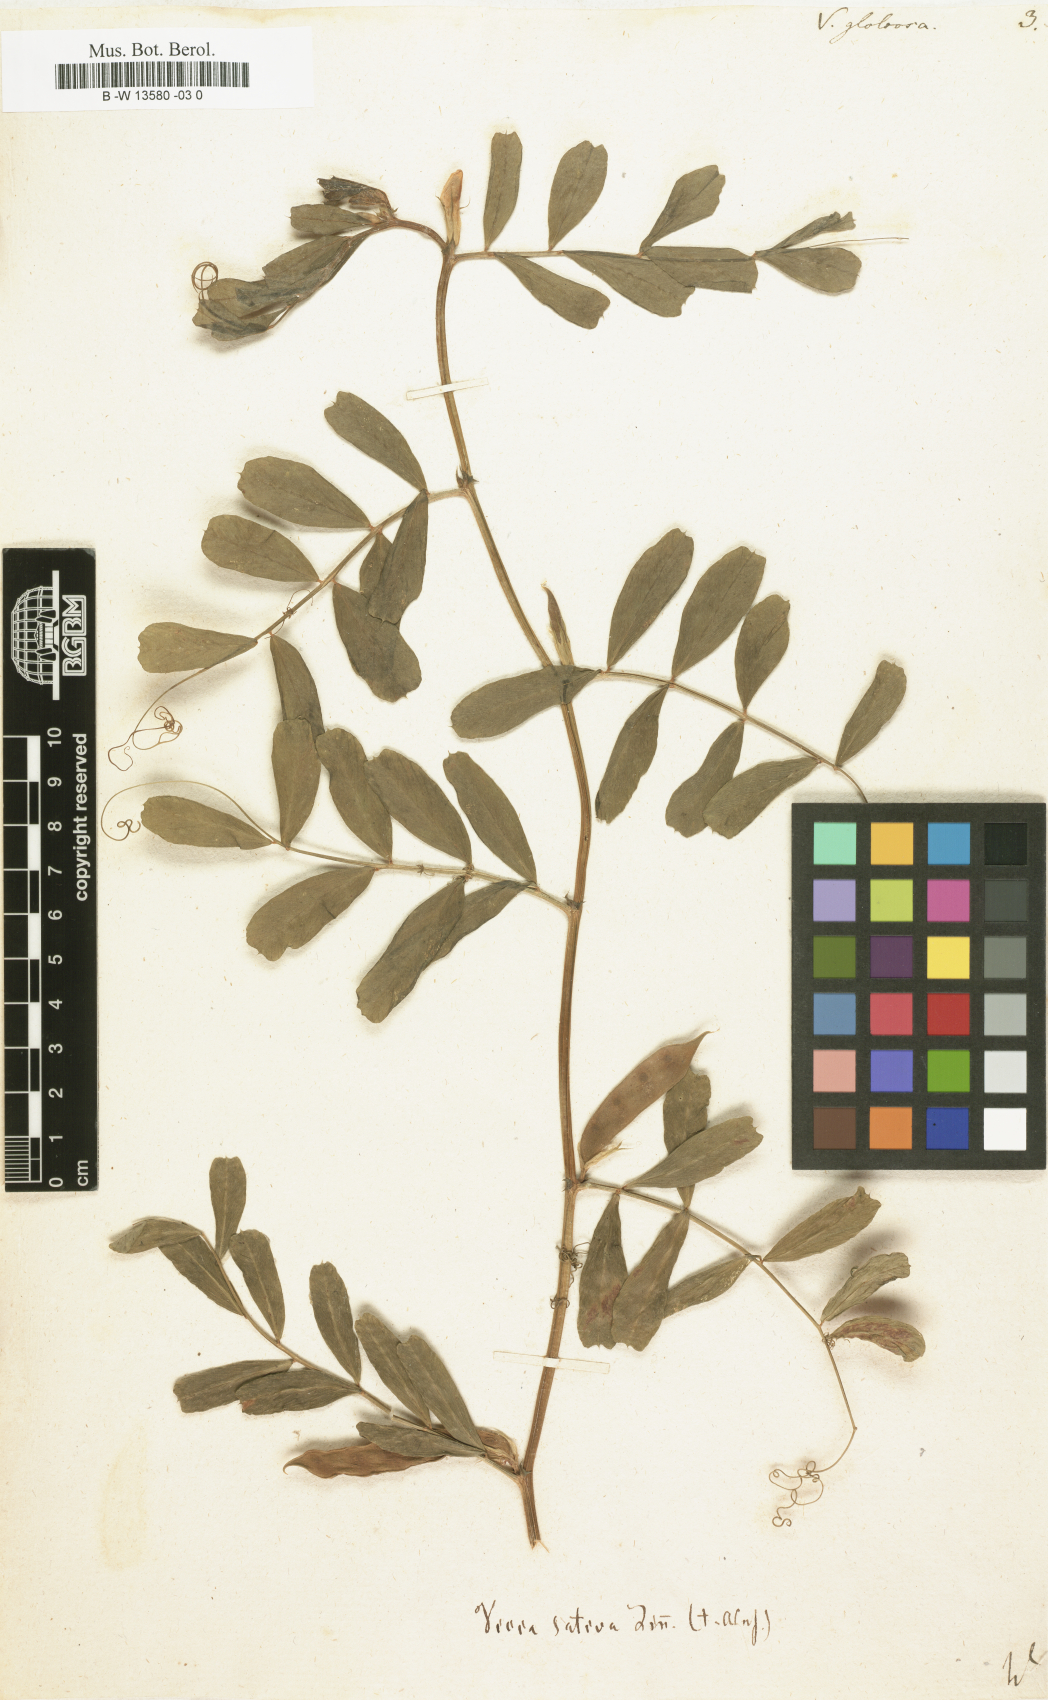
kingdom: Plantae
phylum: Tracheophyta
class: Magnoliopsida
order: Fabales
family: Fabaceae
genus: Vicia
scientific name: Vicia sativa
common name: Garden vetch
